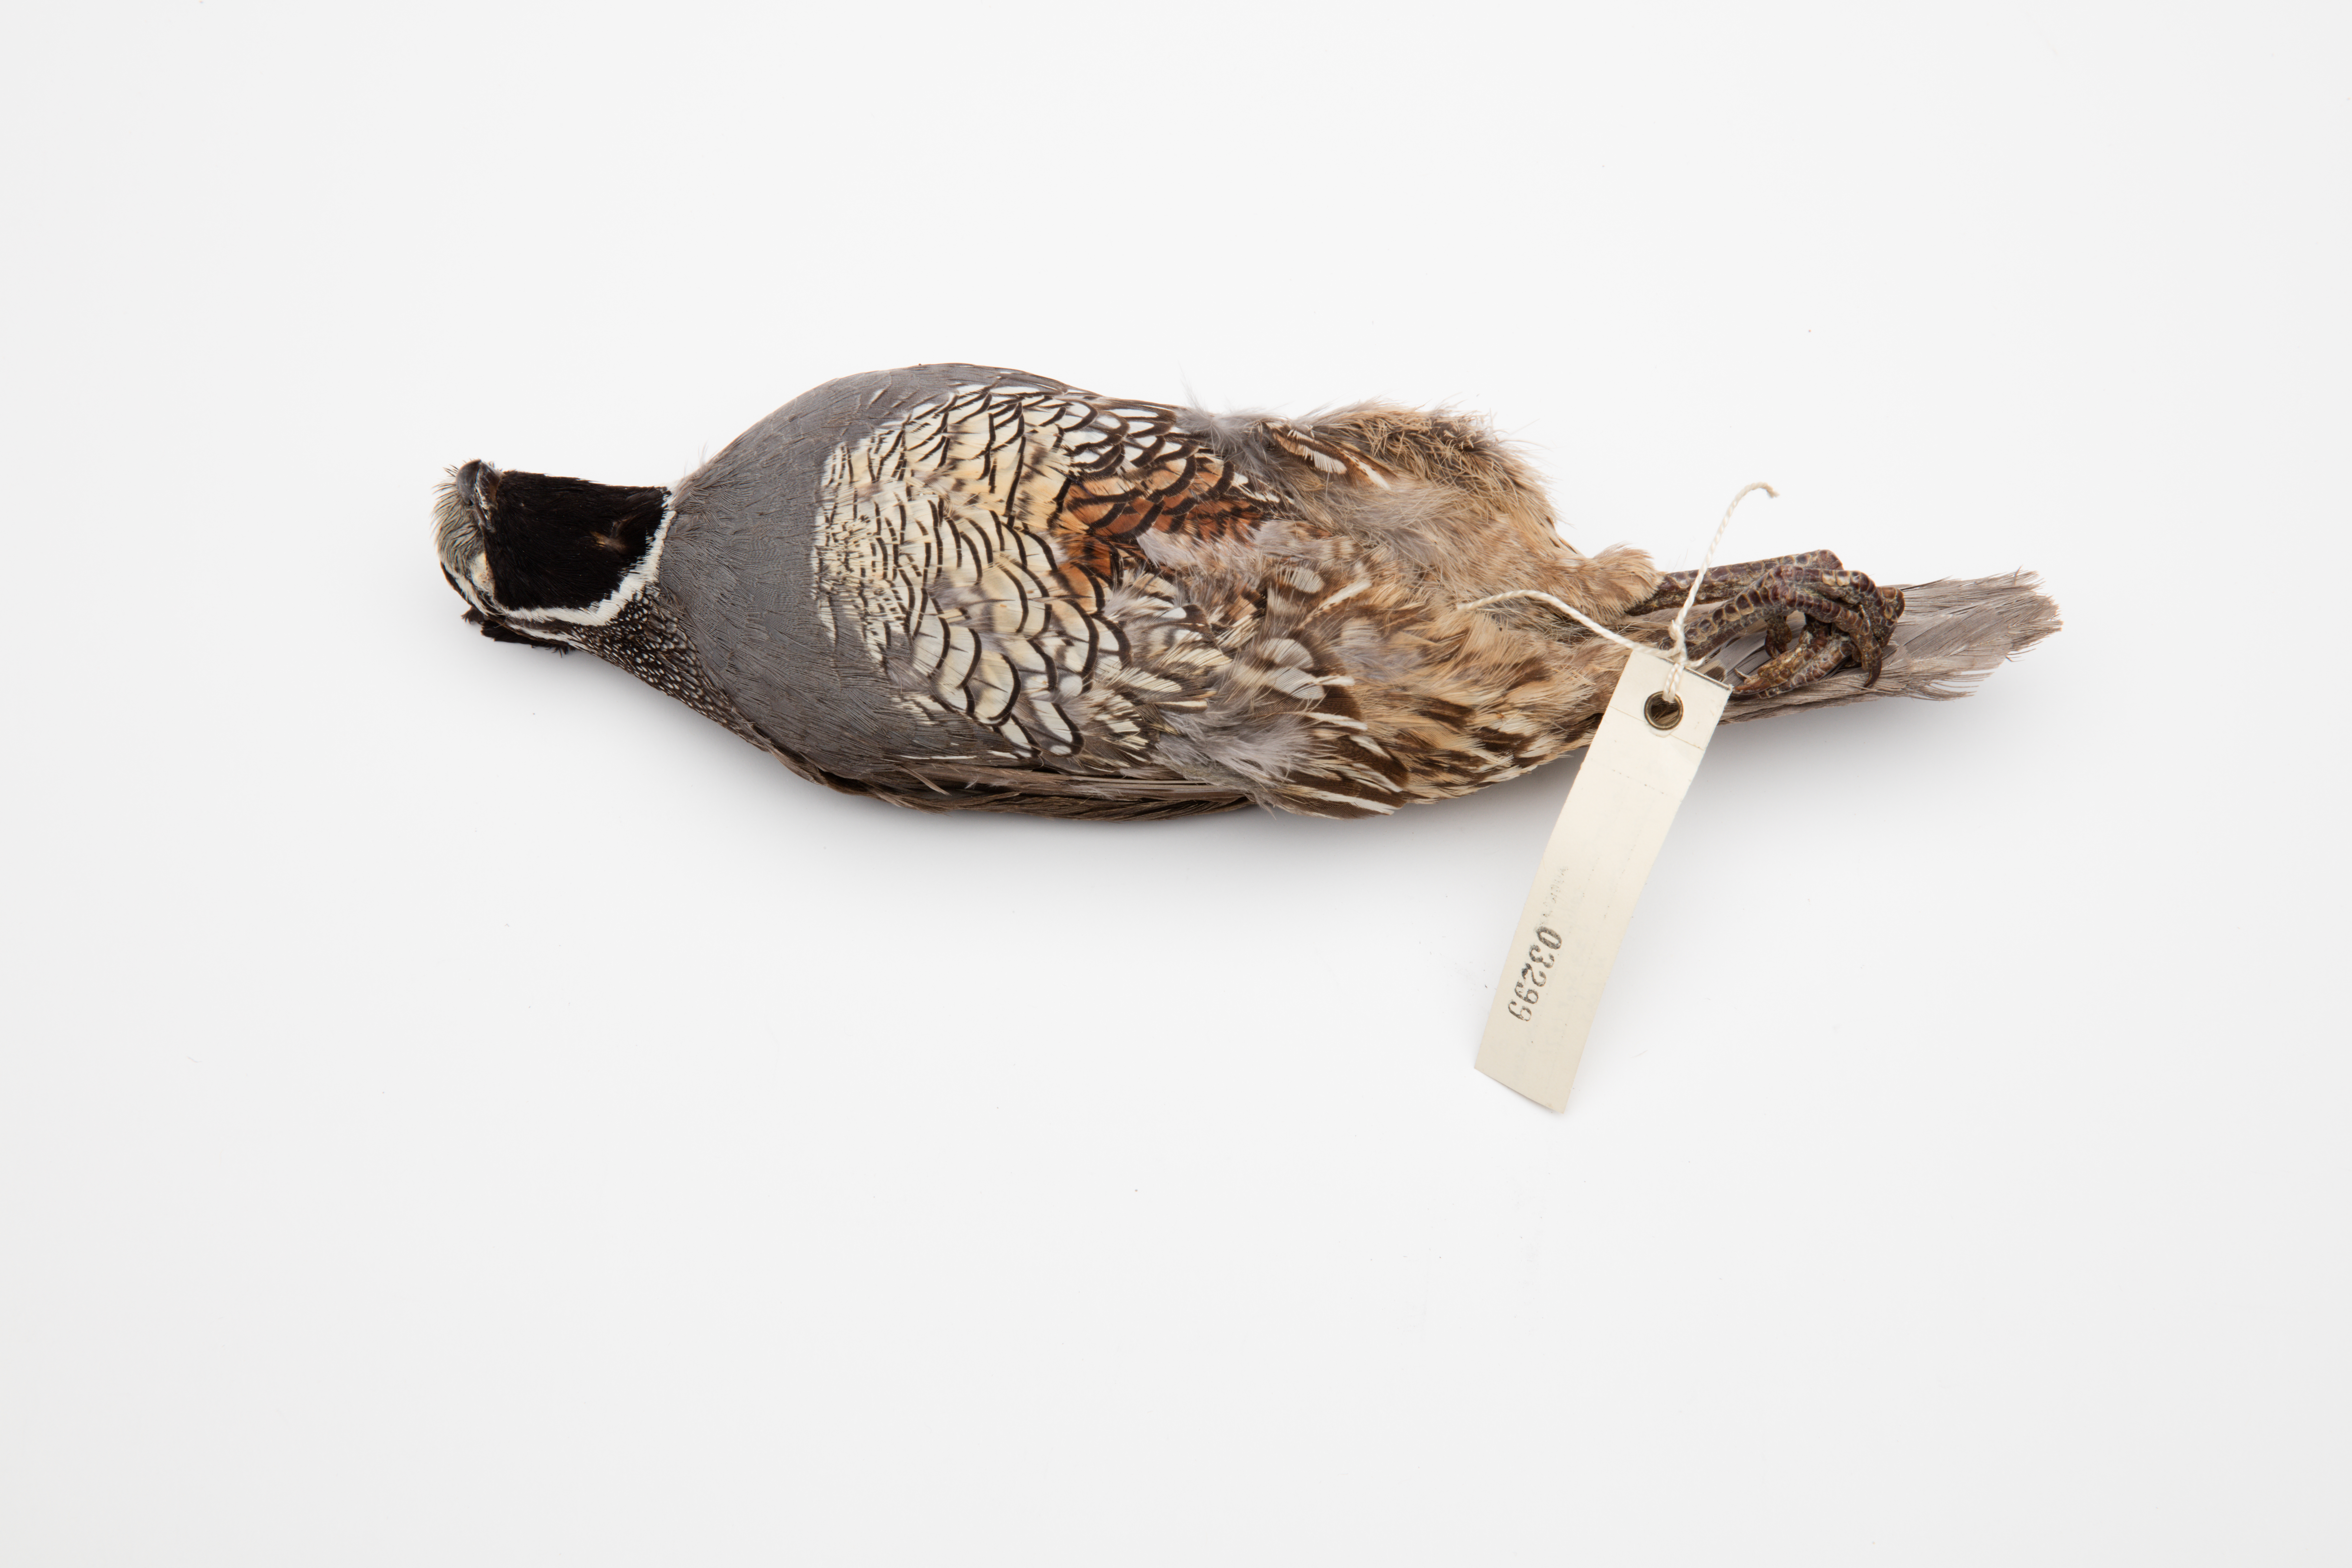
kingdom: Animalia
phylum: Chordata
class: Aves
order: Galliformes
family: Odontophoridae
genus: Callipepla
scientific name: Callipepla californica
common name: California quail
